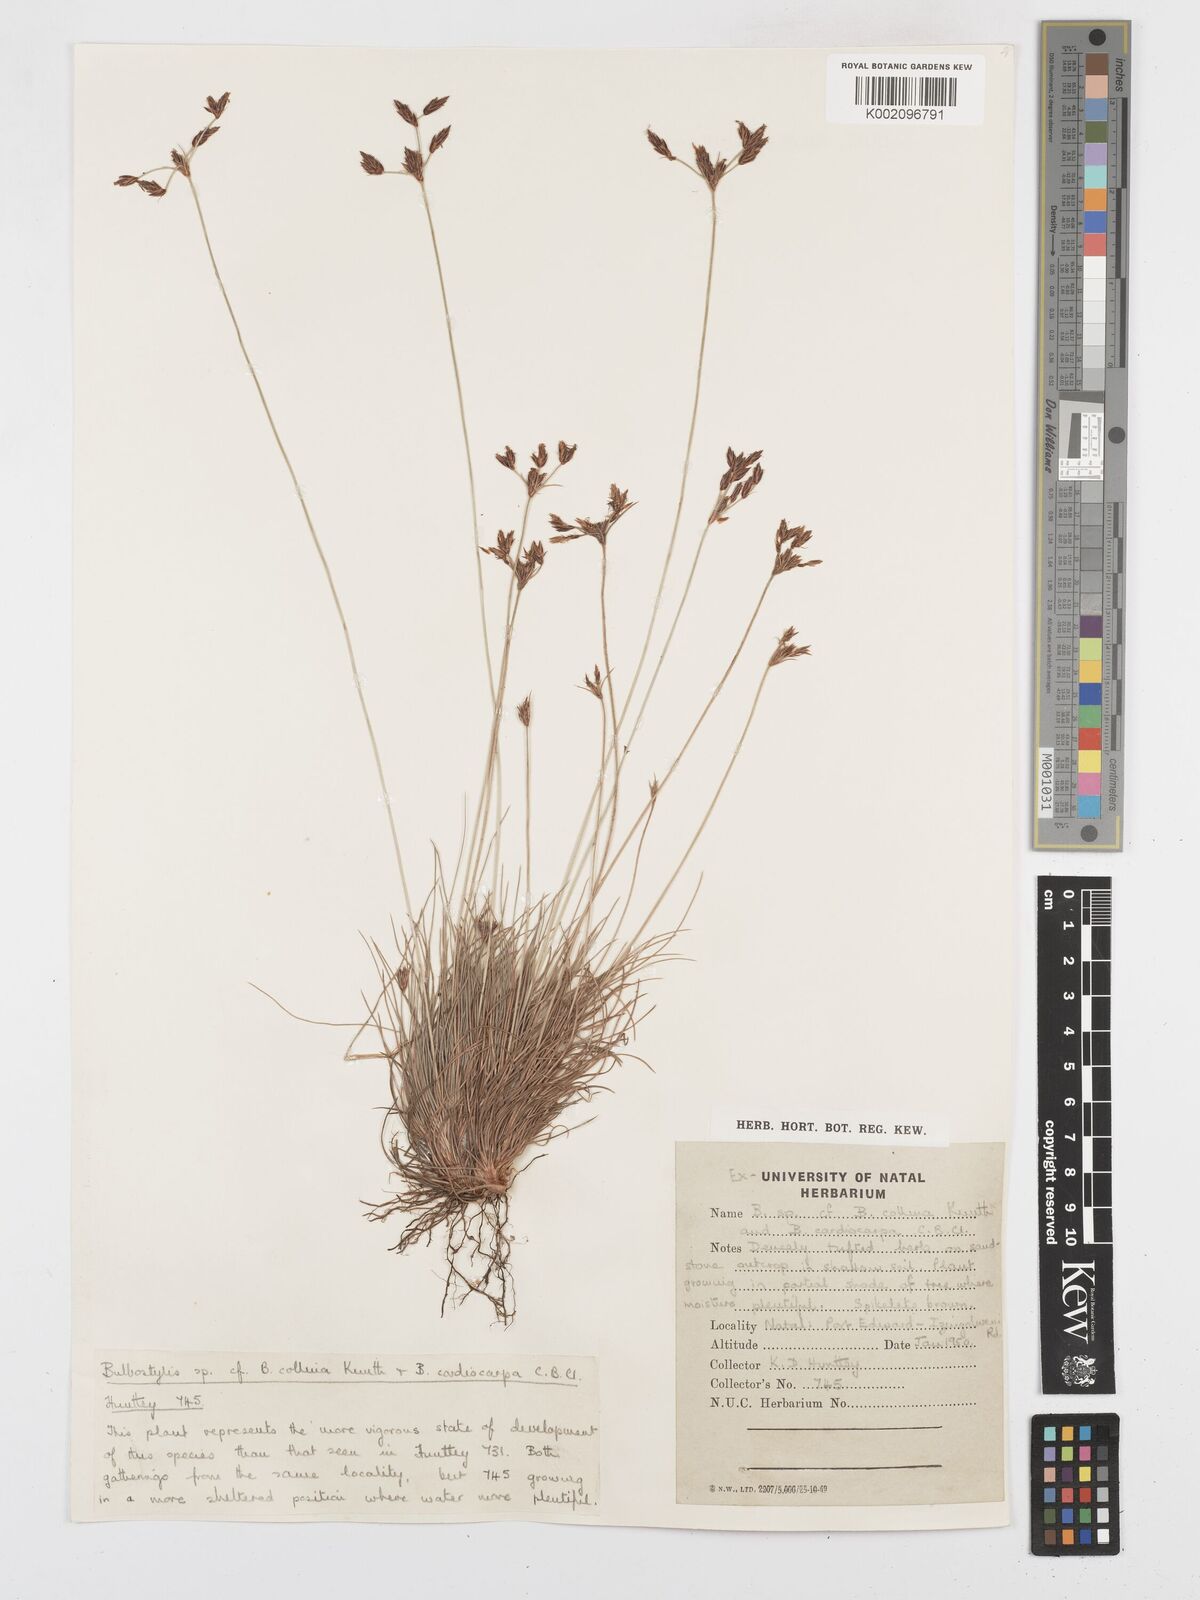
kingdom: Plantae
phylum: Tracheophyta
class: Liliopsida
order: Poales
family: Cyperaceae
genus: Bulbostylis
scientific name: Bulbostylis
